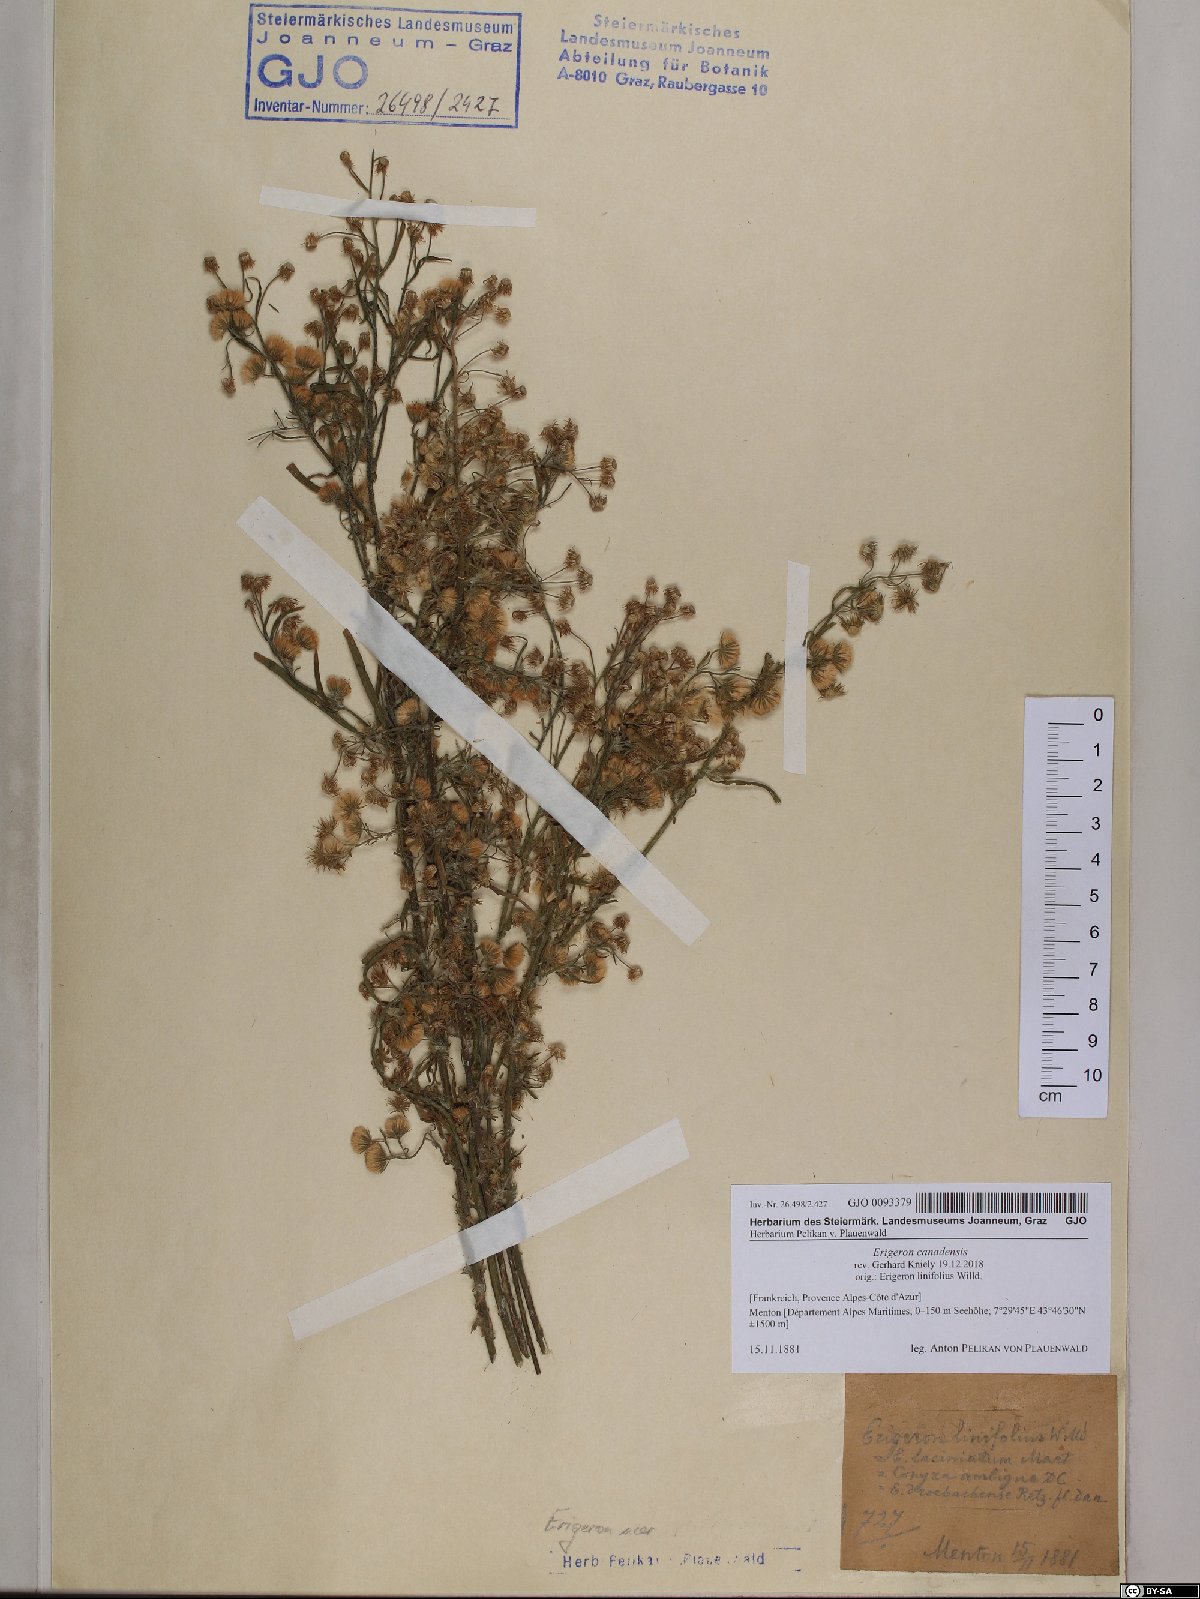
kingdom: Plantae
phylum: Tracheophyta
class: Magnoliopsida
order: Asterales
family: Asteraceae
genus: Erigeron
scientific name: Erigeron canadensis
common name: Canadian fleabane
